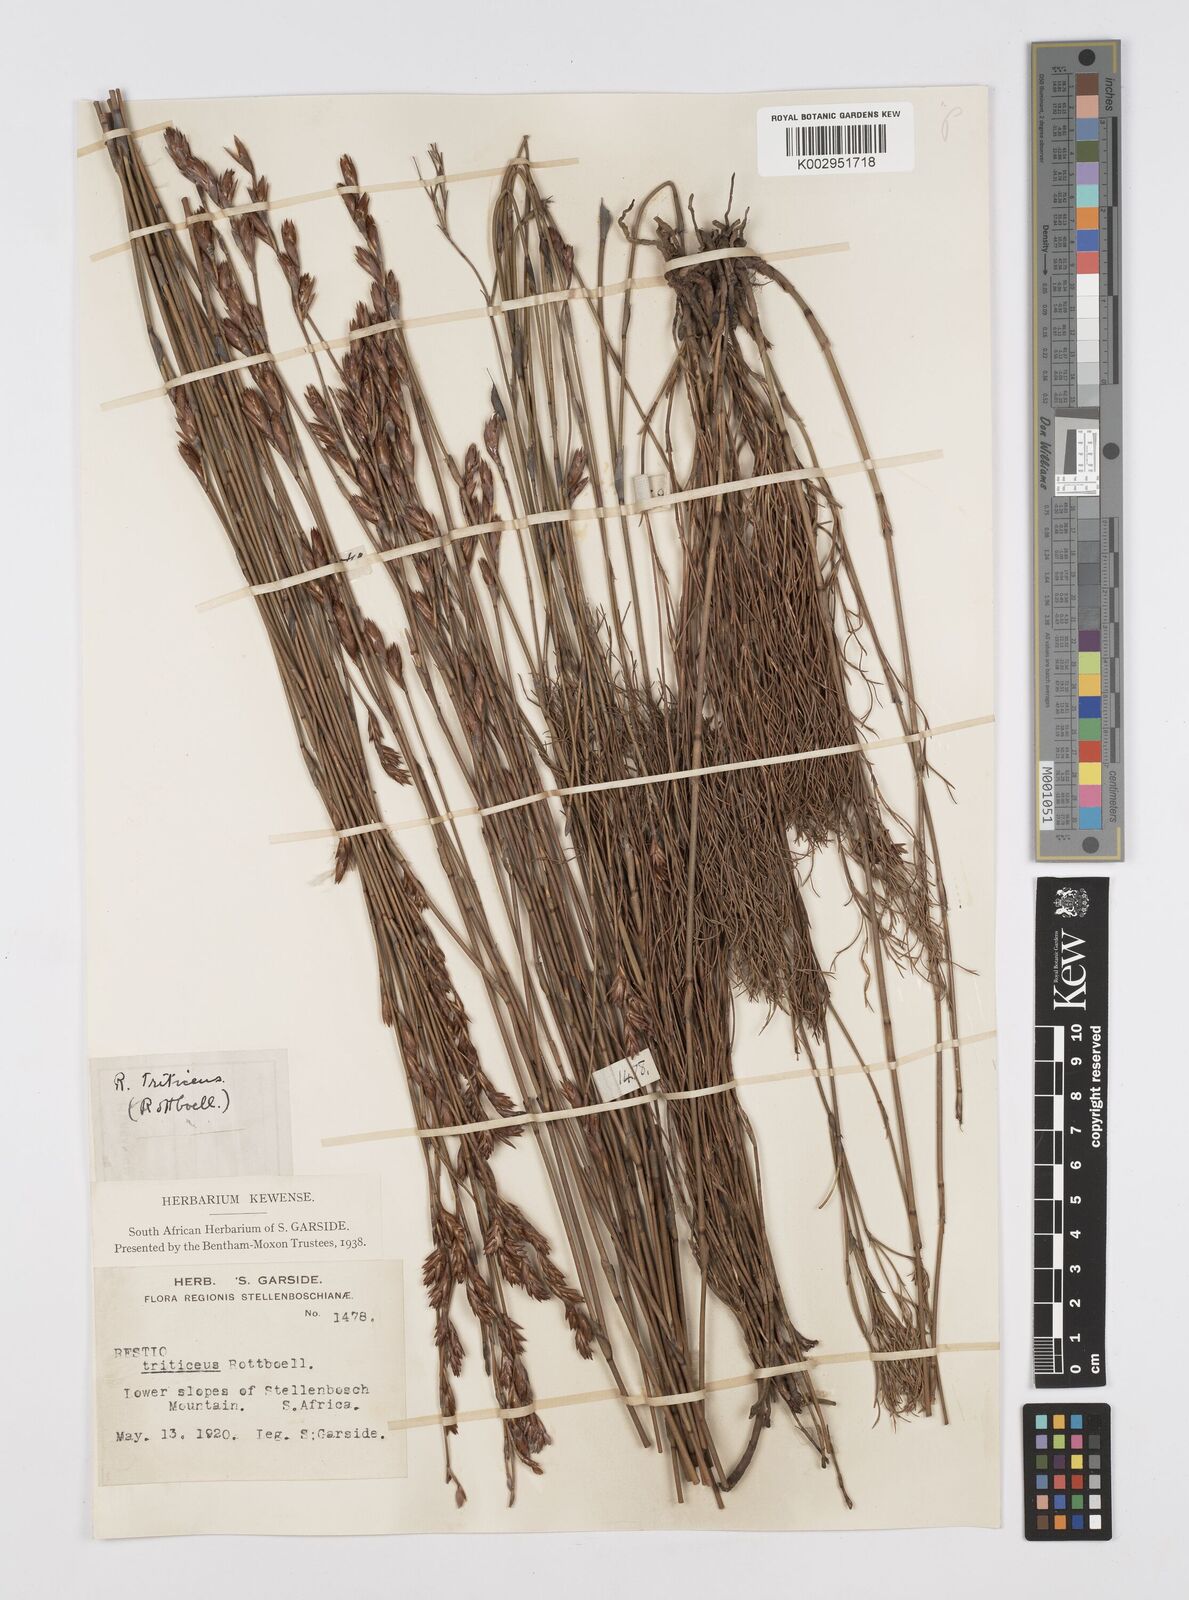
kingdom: Plantae
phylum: Tracheophyta
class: Liliopsida
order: Poales
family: Restionaceae
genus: Restio
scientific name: Restio triticeus
